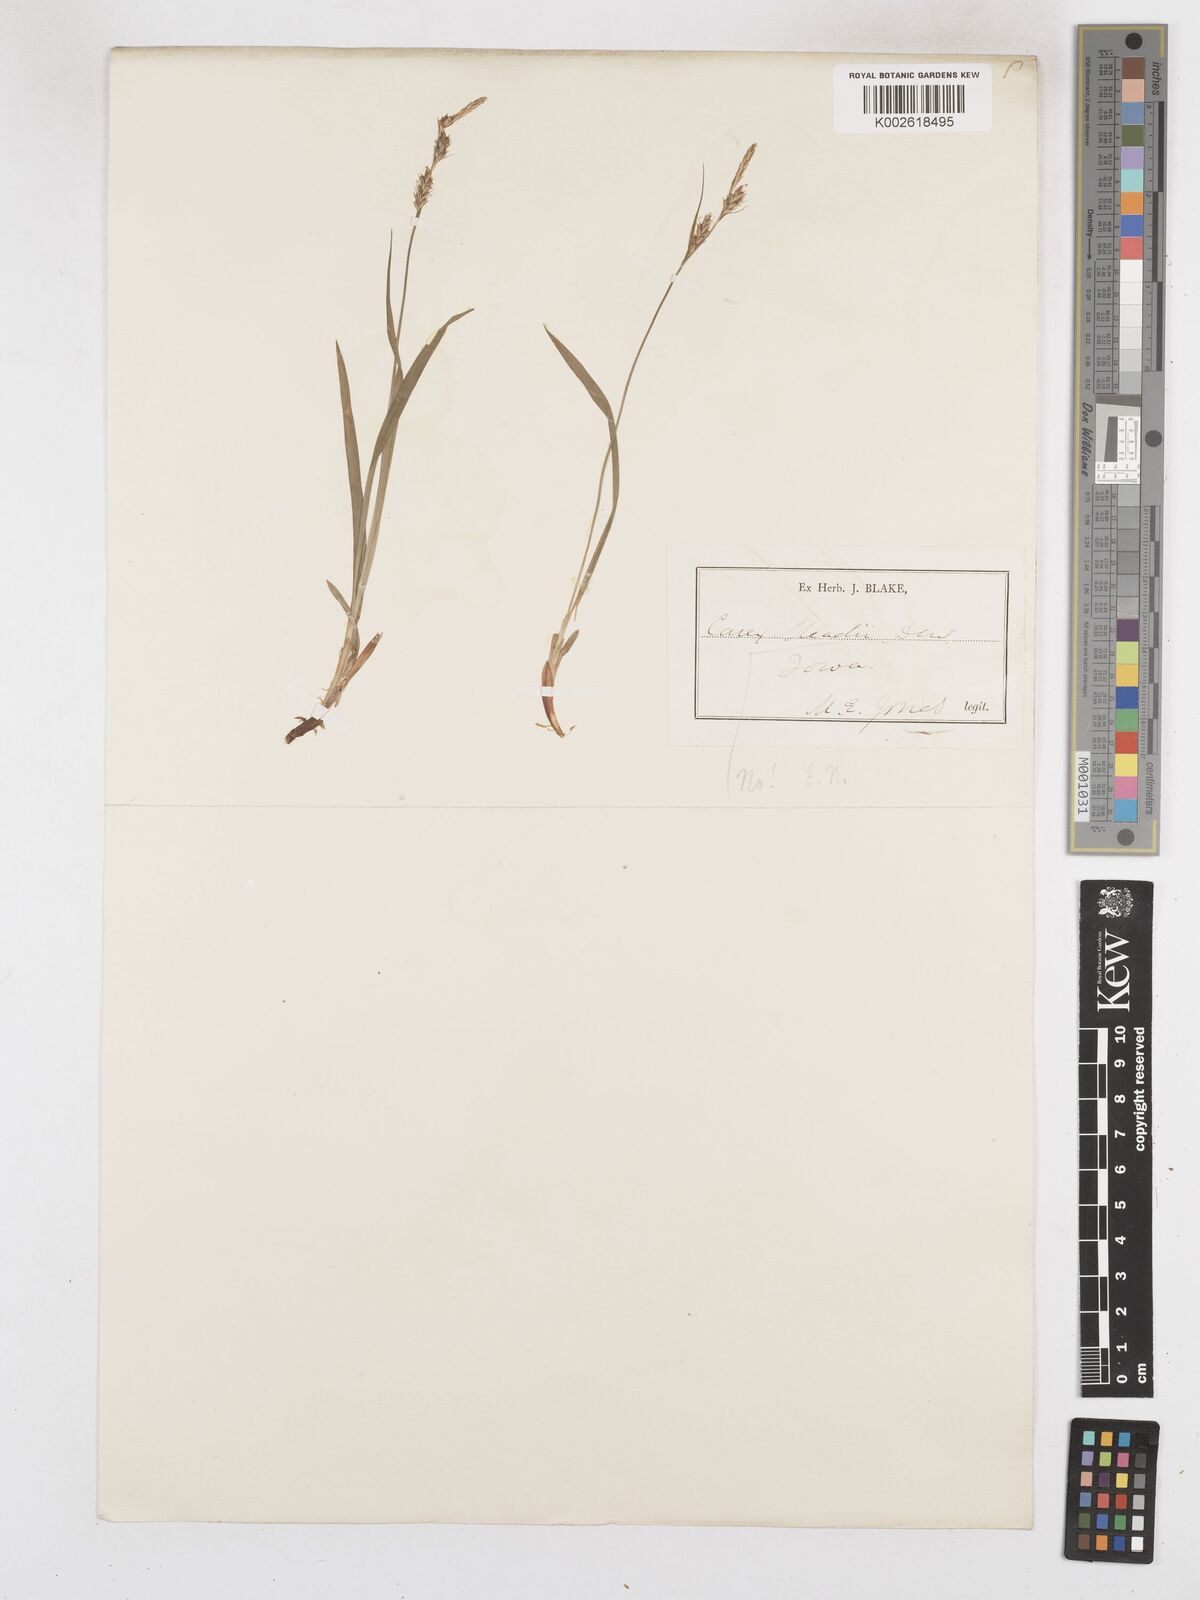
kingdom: Plantae
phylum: Tracheophyta
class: Liliopsida
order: Poales
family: Cyperaceae
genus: Carex
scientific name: Carex meadii
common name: Mead's sedge
